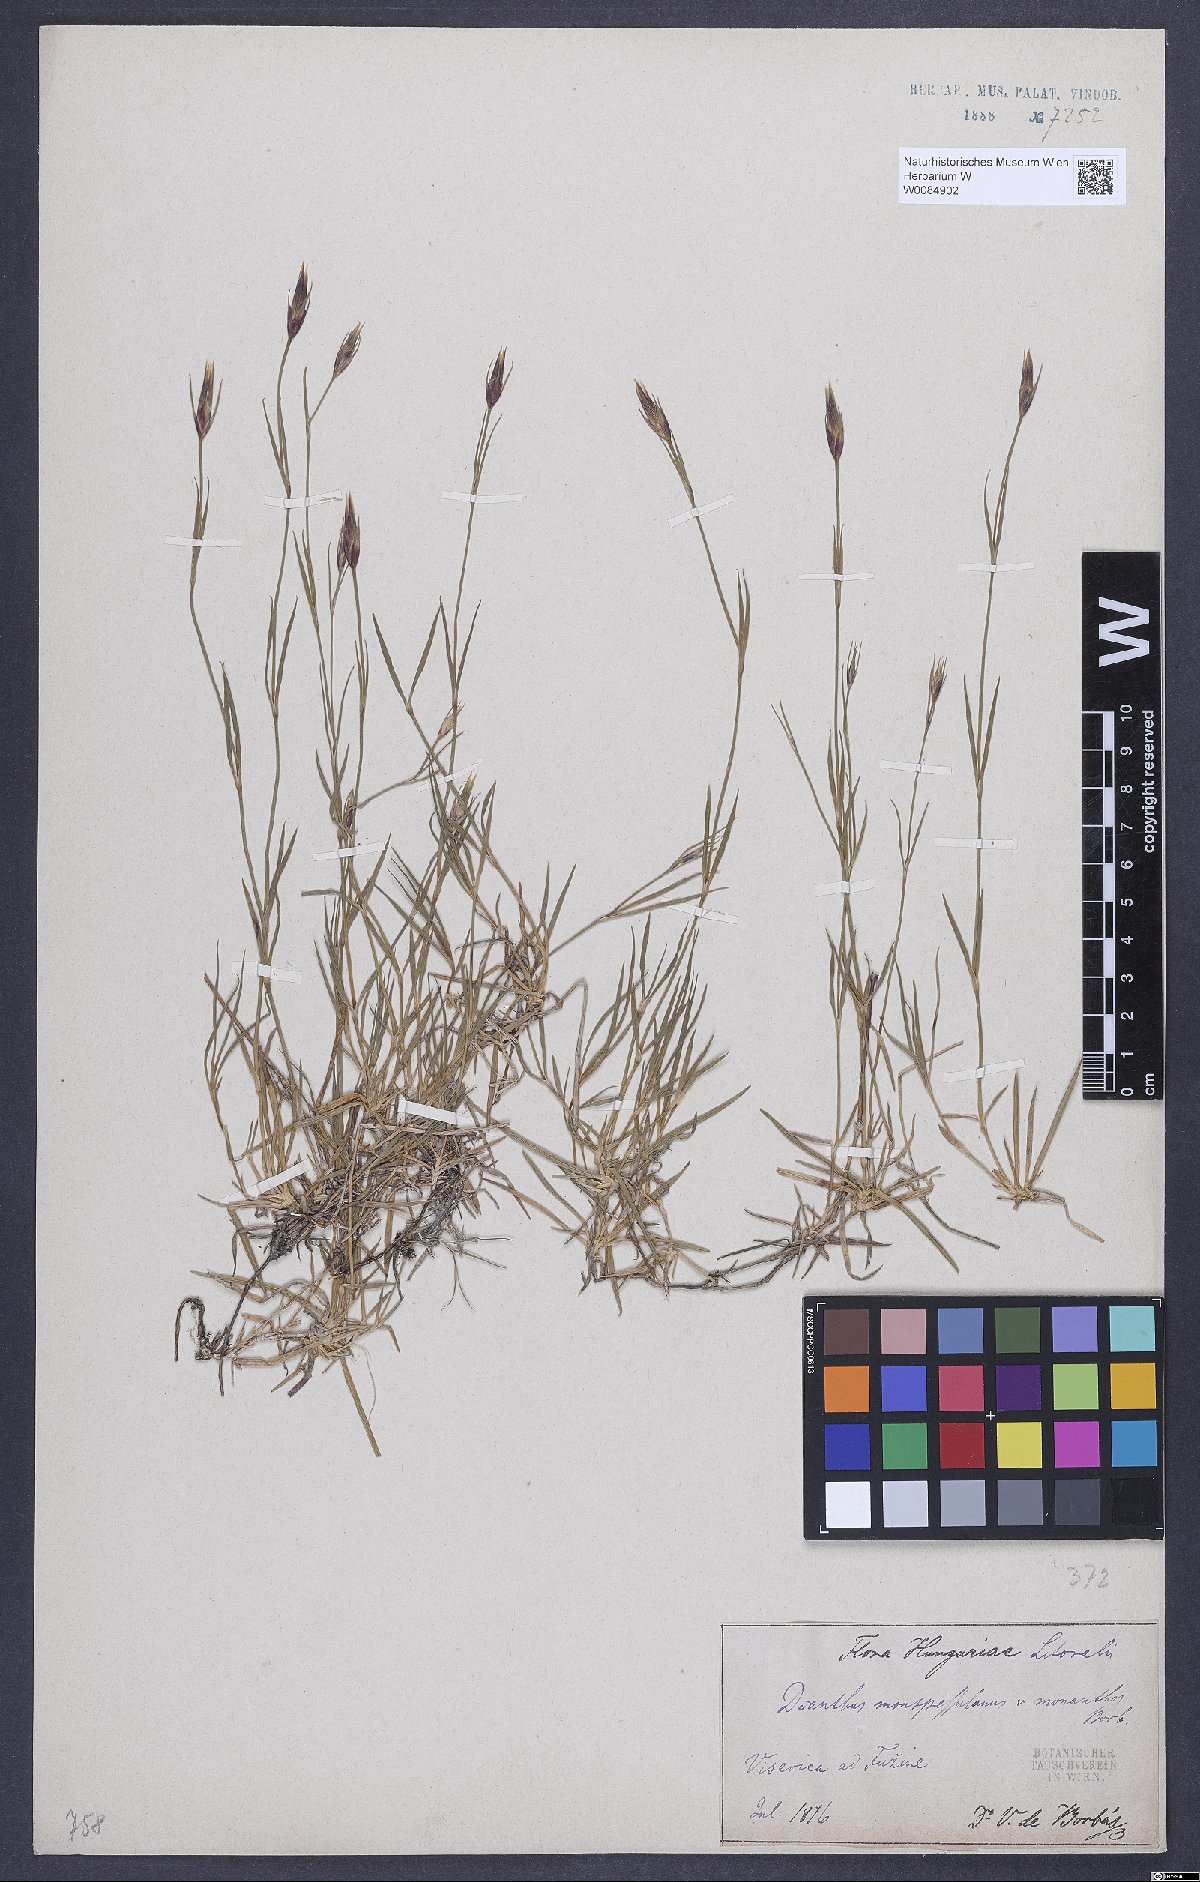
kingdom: Plantae
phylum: Tracheophyta
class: Magnoliopsida
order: Caryophyllales
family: Caryophyllaceae
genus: Dianthus
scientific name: Dianthus hyssopifolius
